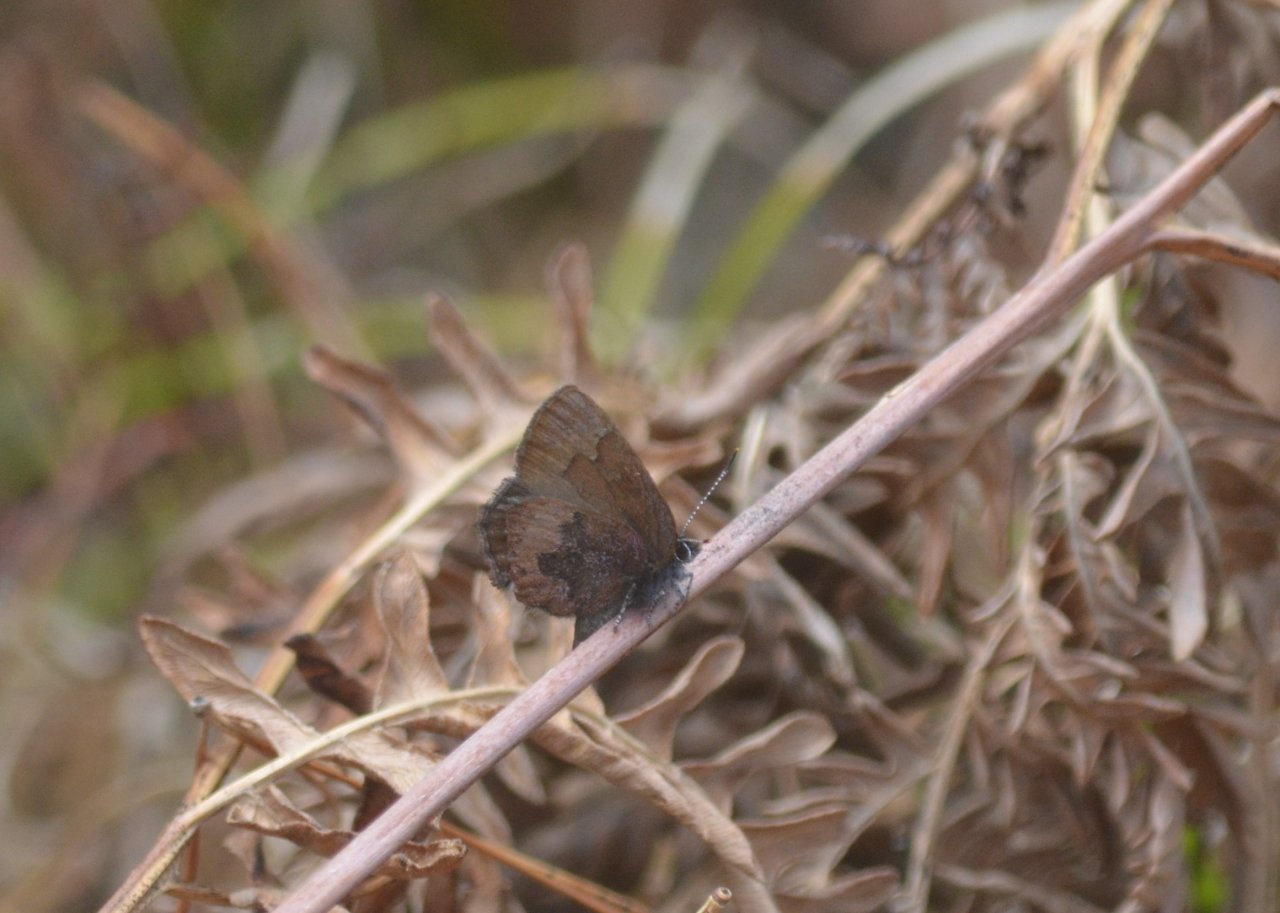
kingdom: Animalia
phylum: Arthropoda
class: Insecta
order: Lepidoptera
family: Lycaenidae
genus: Incisalia
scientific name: Incisalia irioides
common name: Brown Elfin
